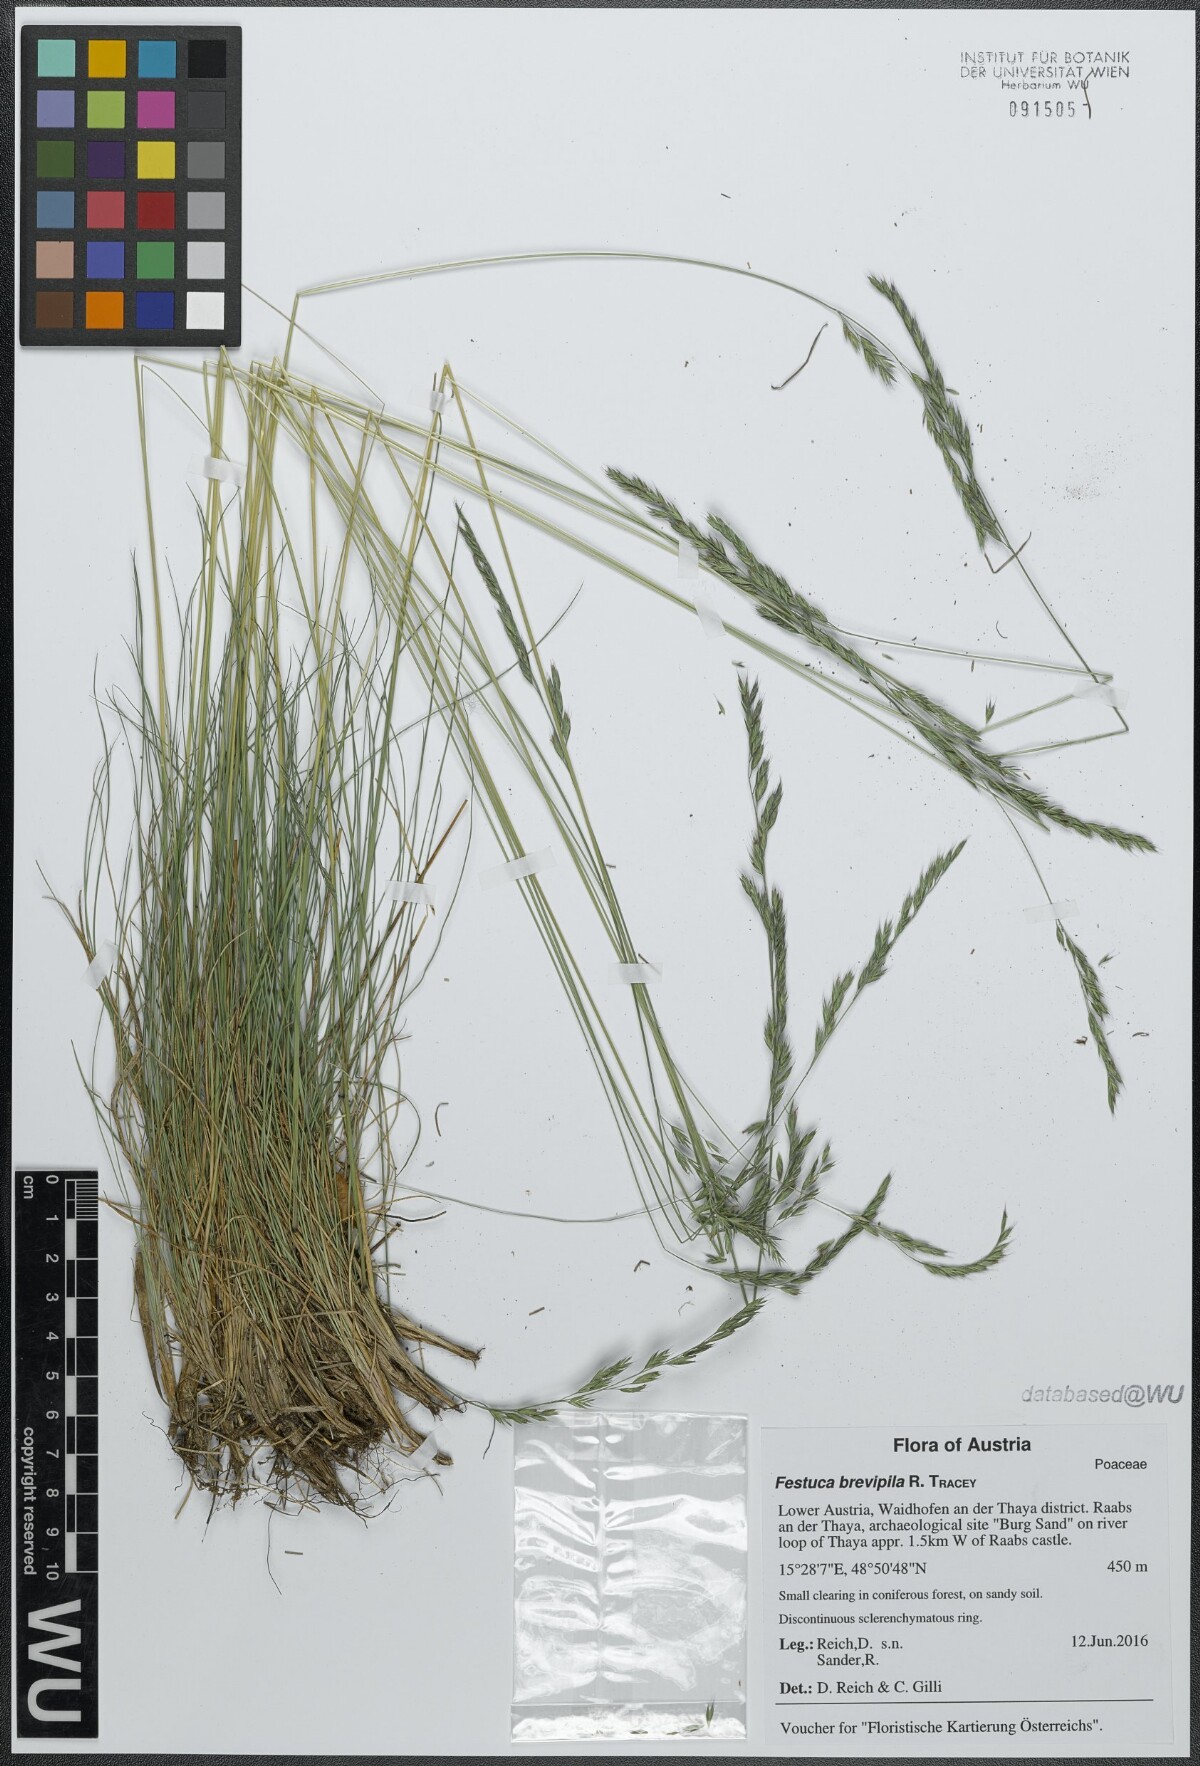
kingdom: Plantae
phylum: Tracheophyta
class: Liliopsida
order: Poales
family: Poaceae
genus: Festuca
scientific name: Festuca trachyphylla
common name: Hard fescue
